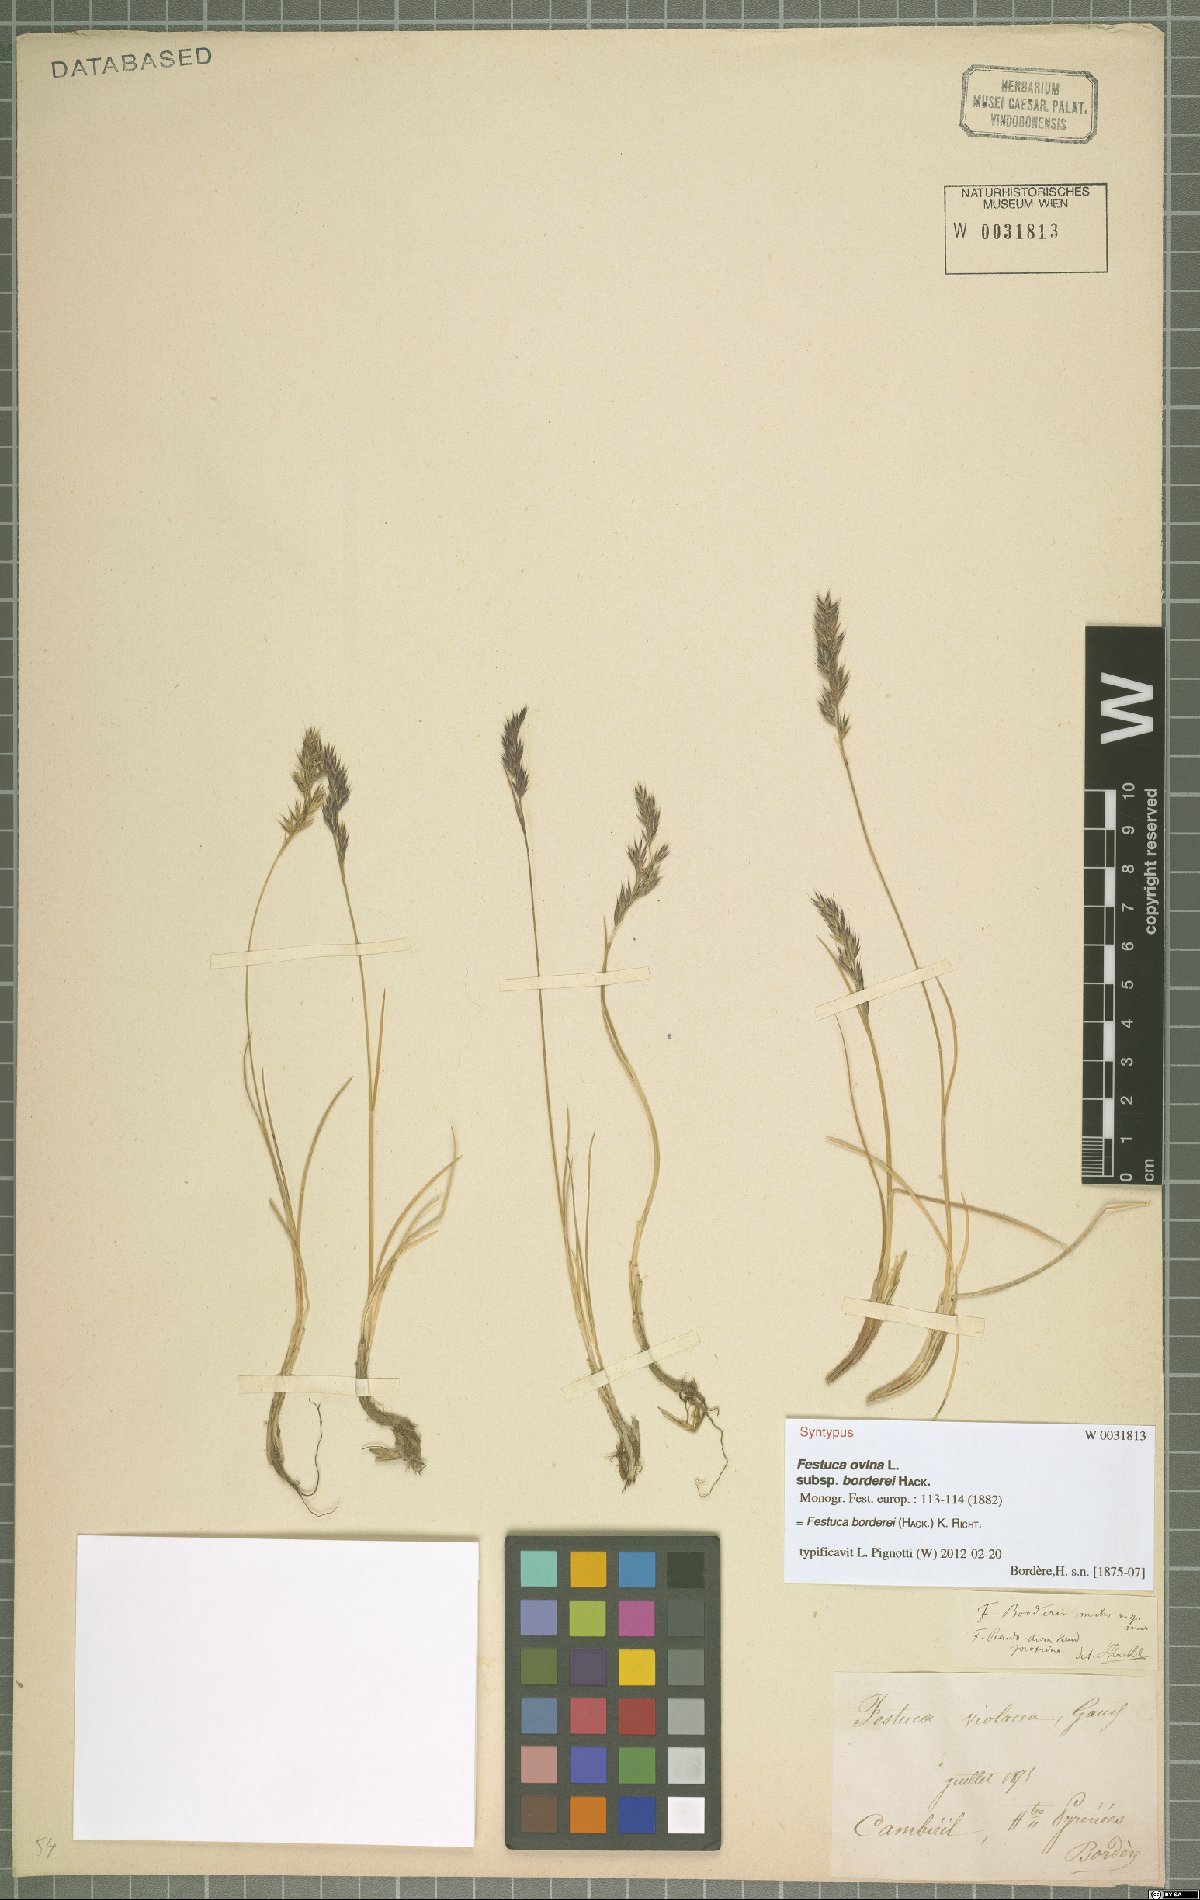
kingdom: Plantae
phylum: Tracheophyta
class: Liliopsida
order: Poales
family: Poaceae
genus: Festuca
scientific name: Festuca borderii
